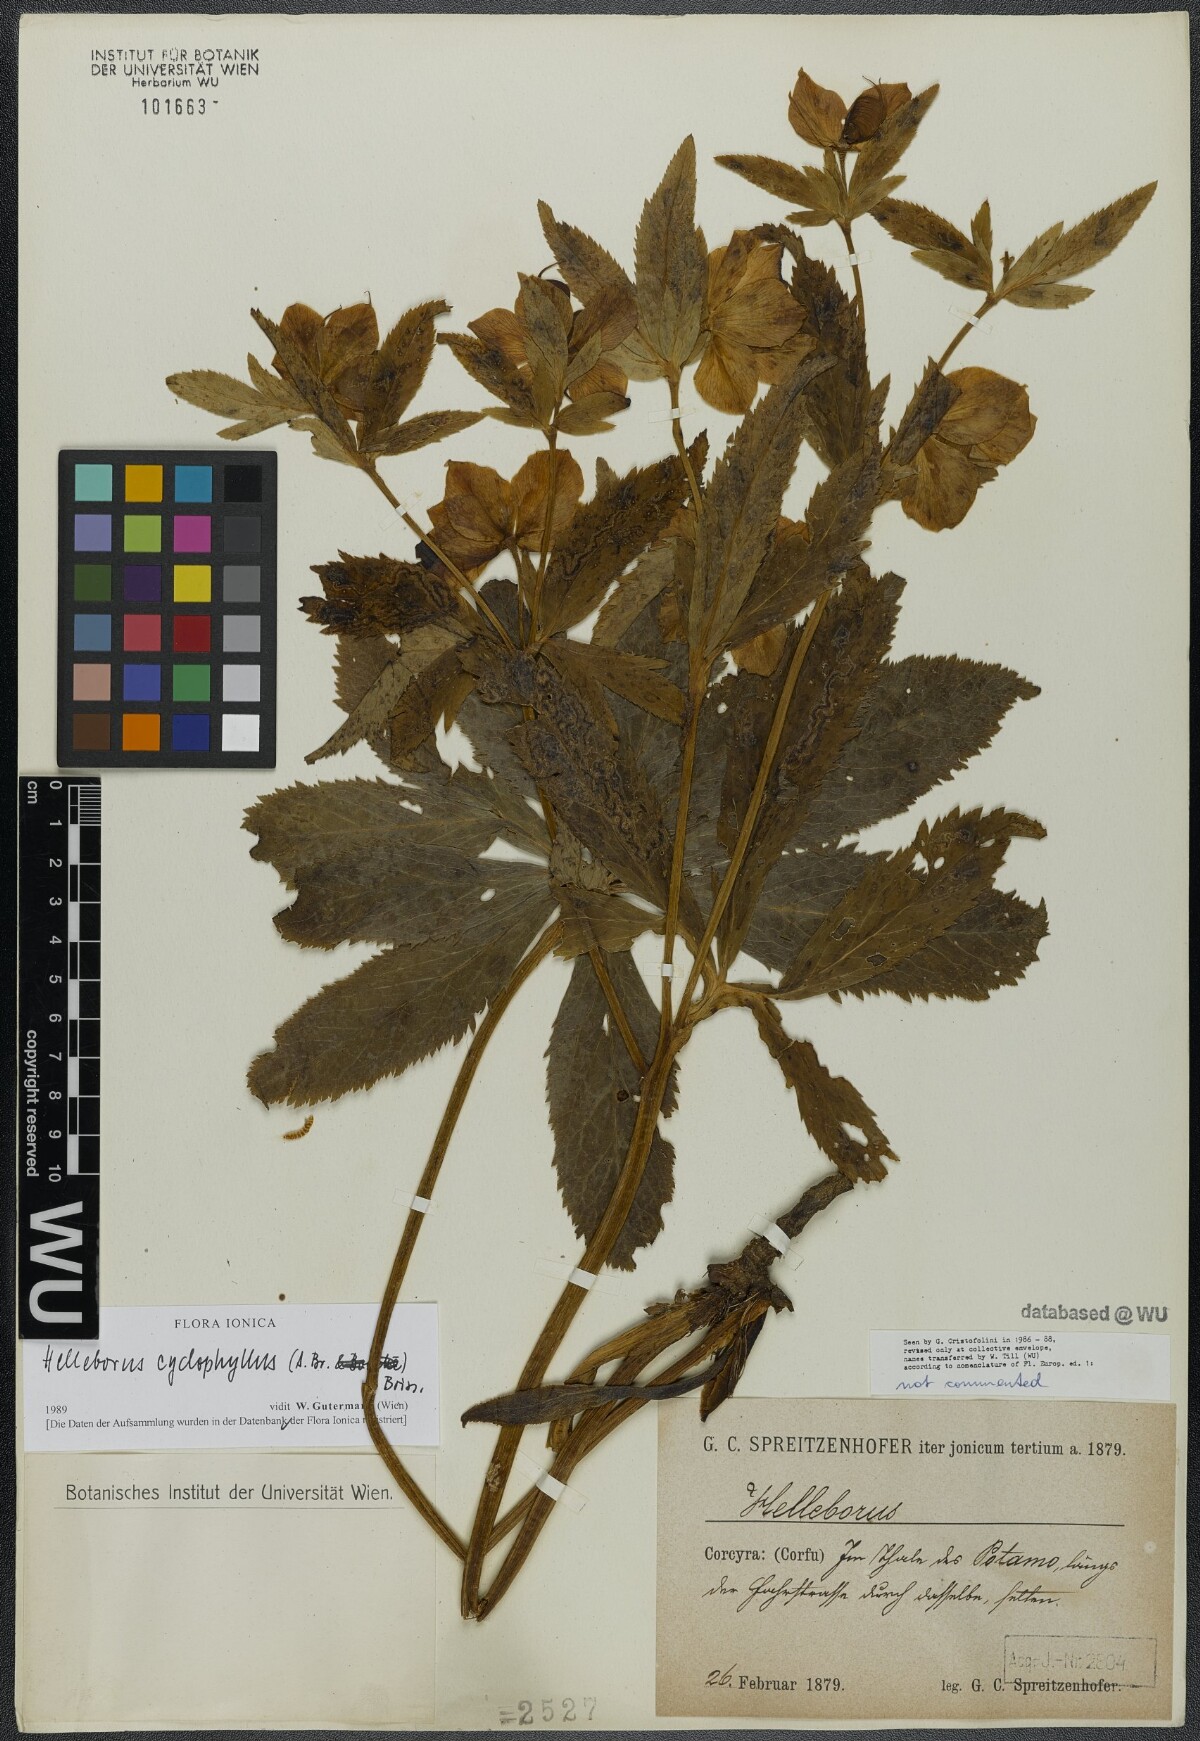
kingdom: Plantae
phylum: Tracheophyta
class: Magnoliopsida
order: Ranunculales
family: Ranunculaceae
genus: Helleborus
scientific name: Helleborus odorus
